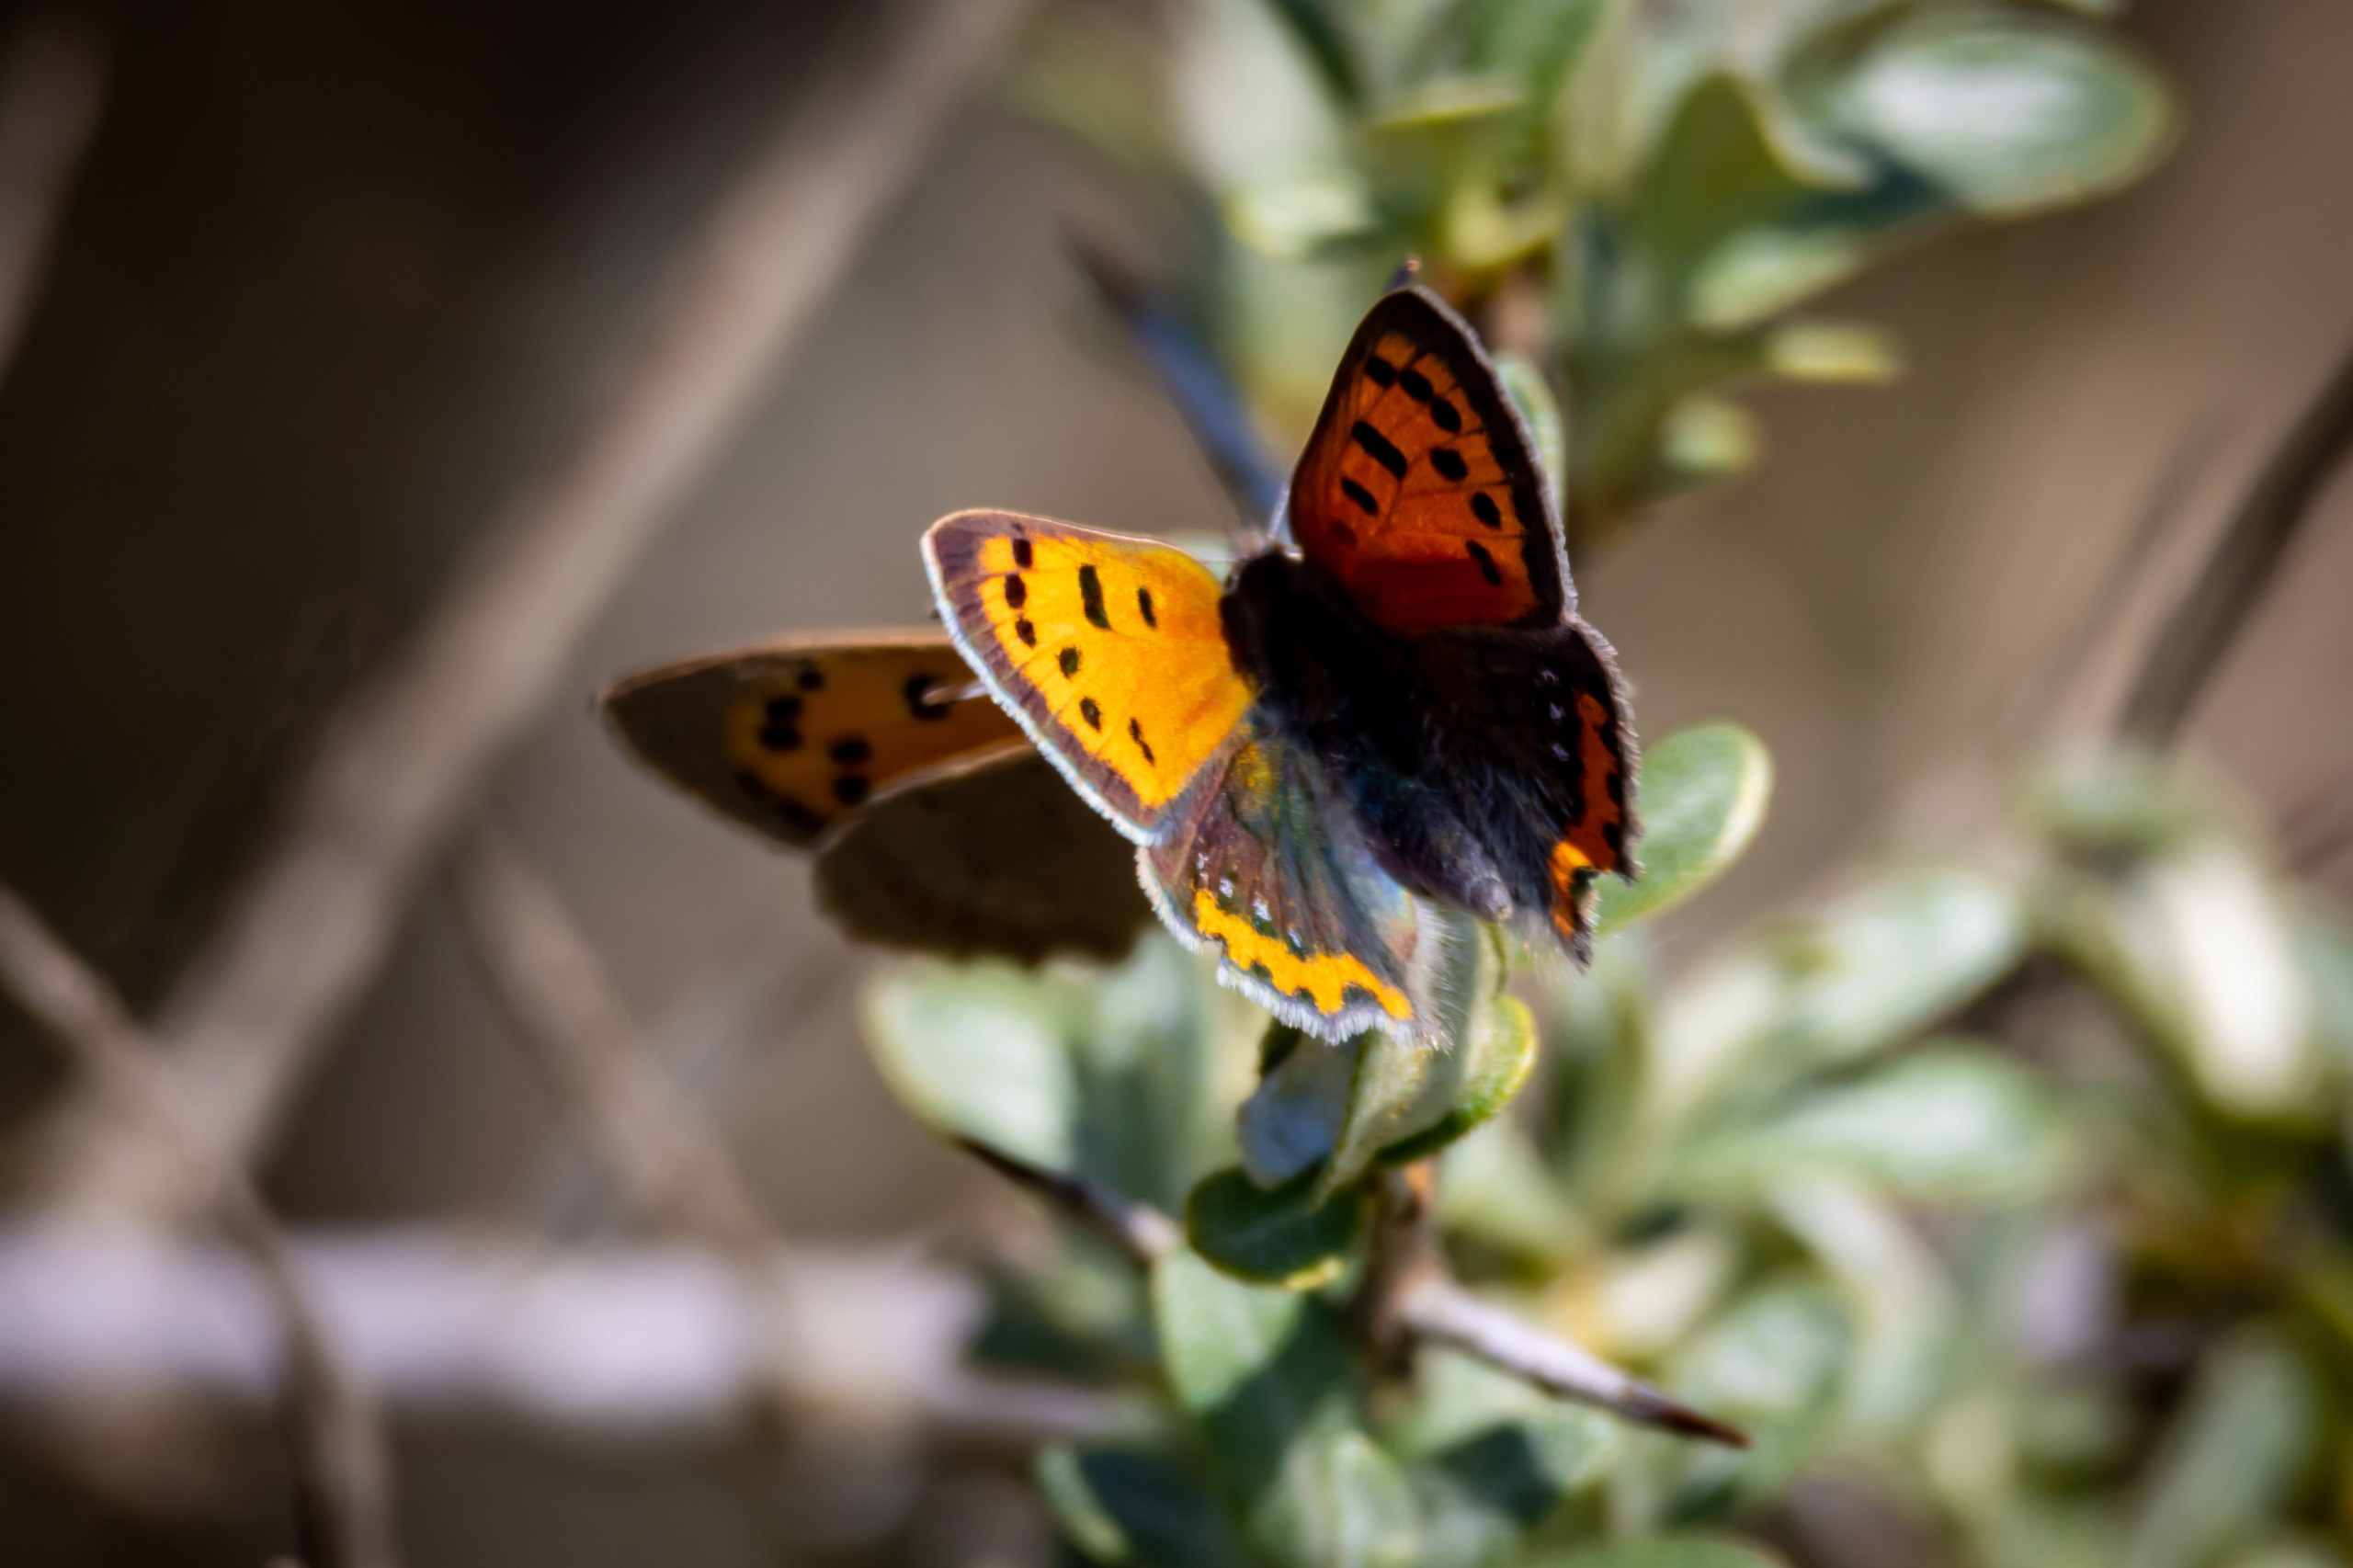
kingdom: Animalia
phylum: Arthropoda
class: Insecta
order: Lepidoptera
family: Lycaenidae
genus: Lycaena
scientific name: Lycaena phlaeas
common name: Lille ildfugl
